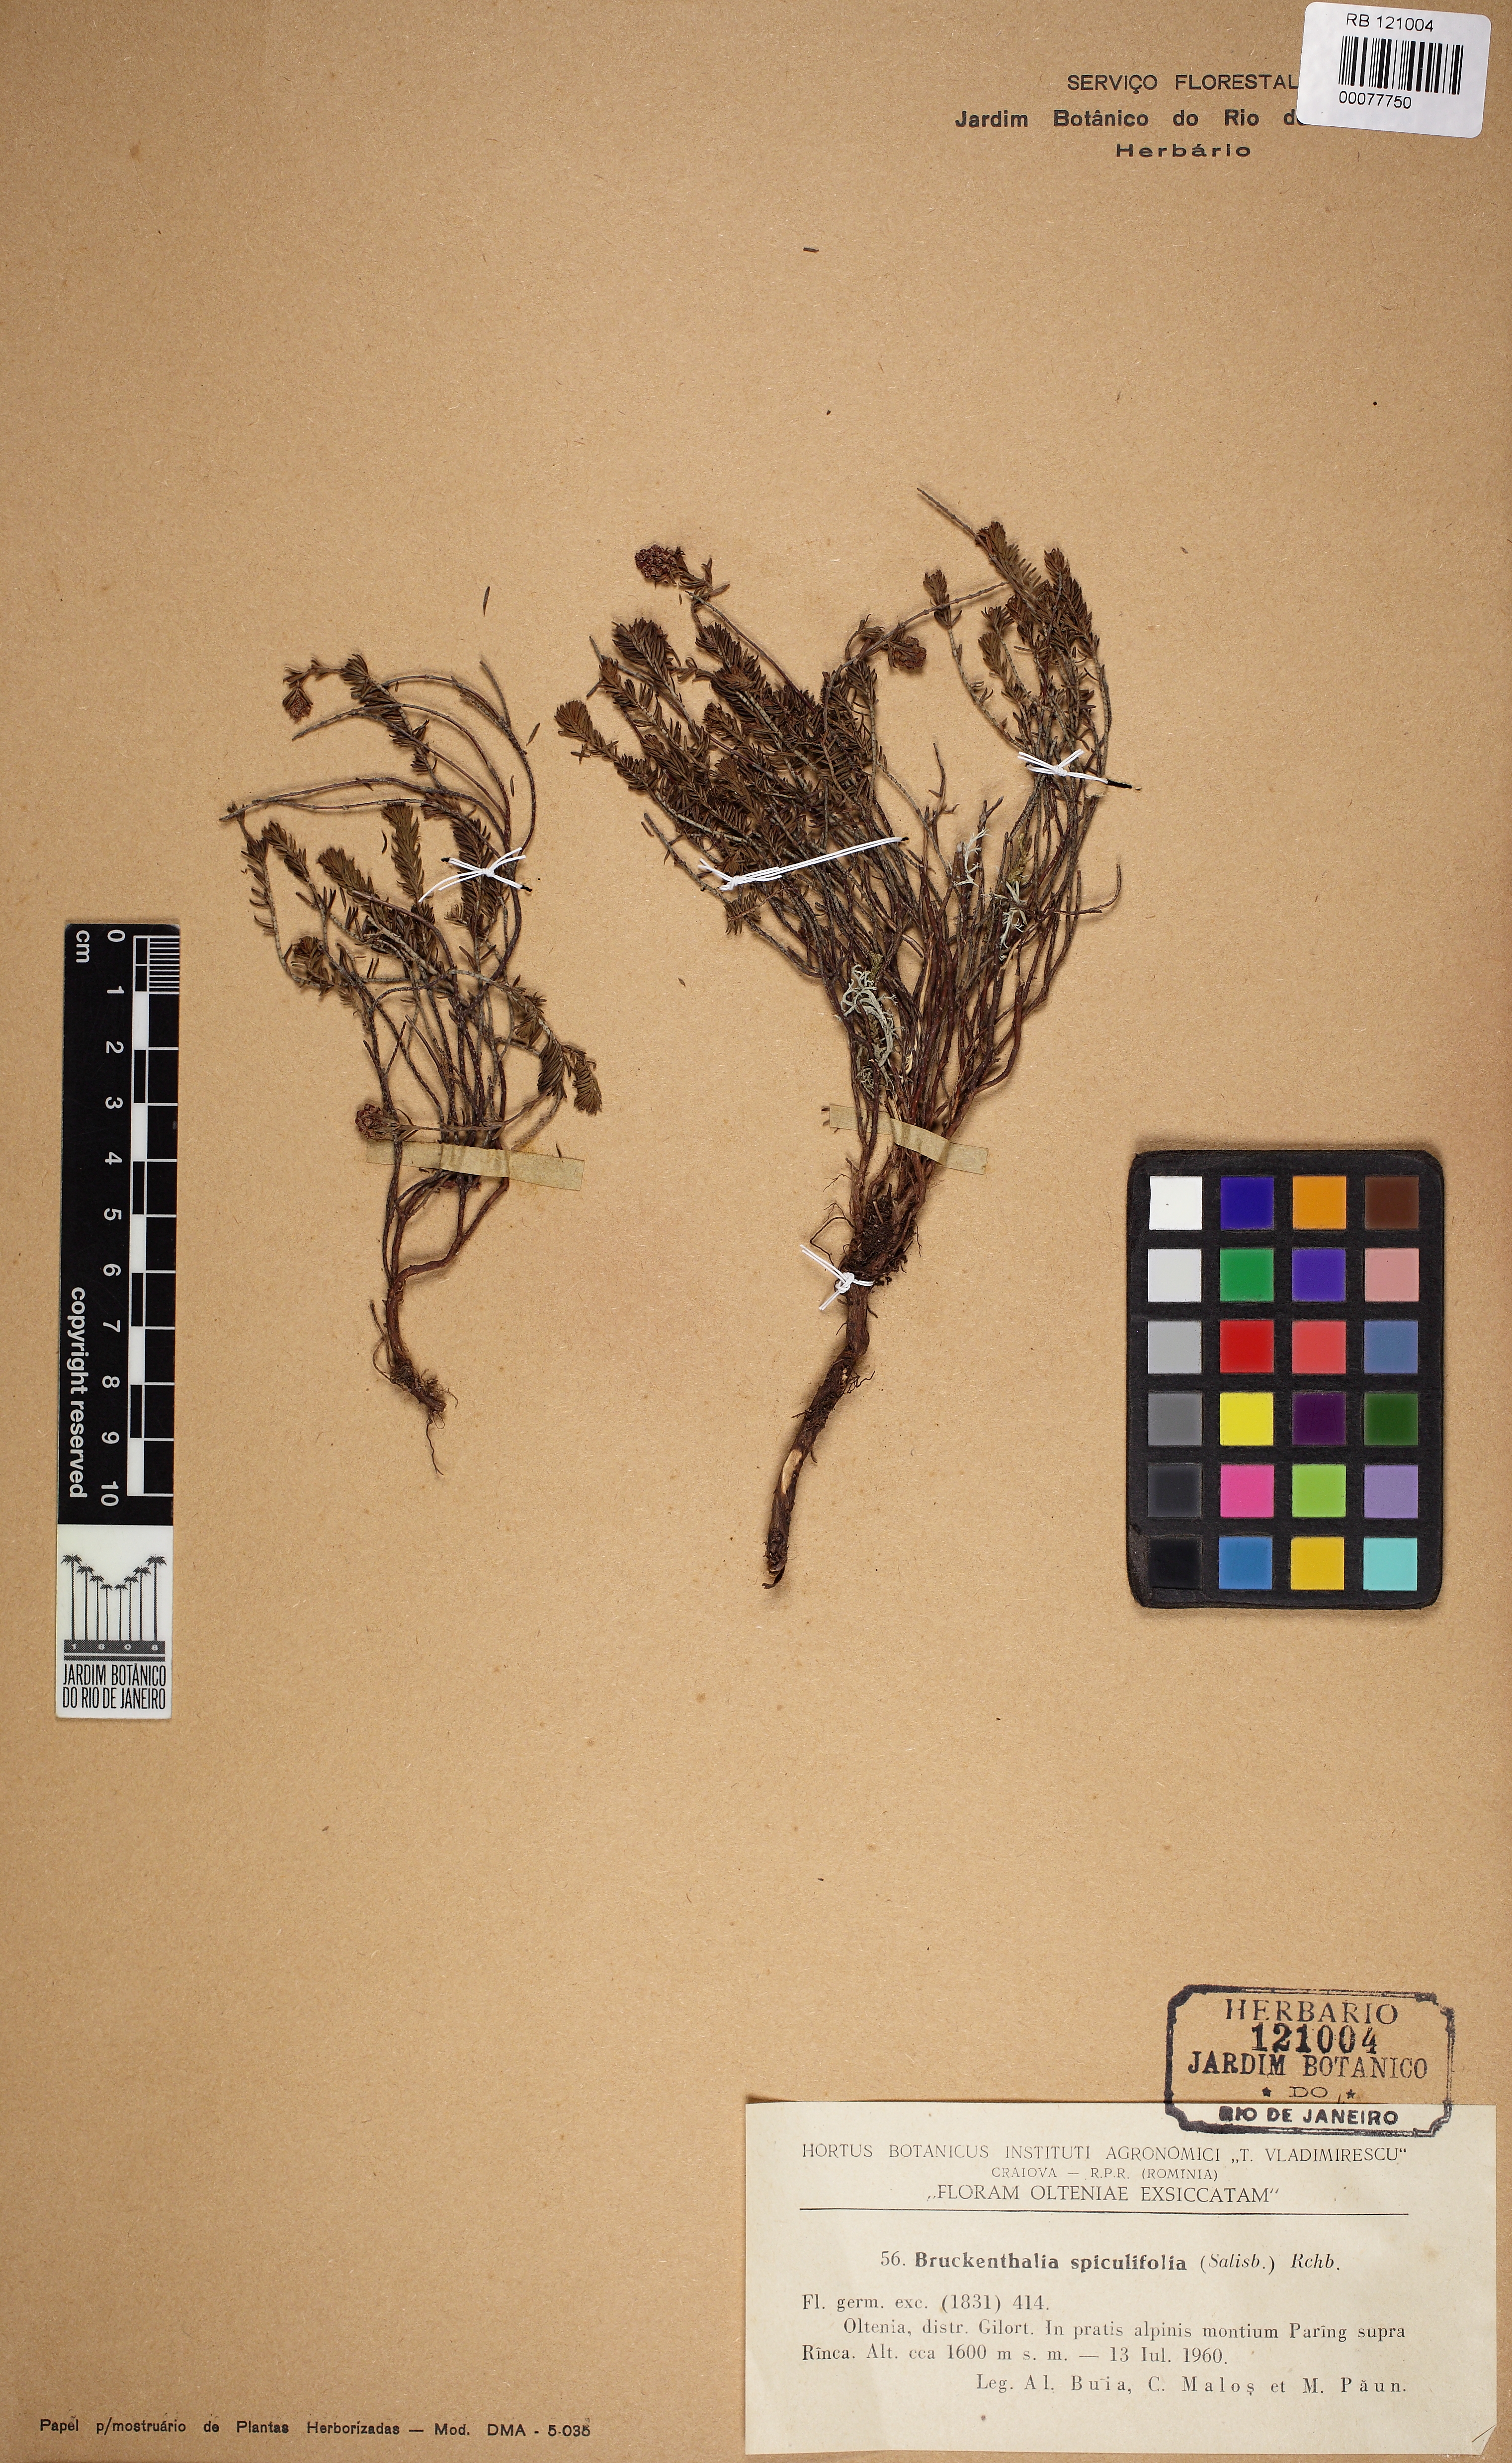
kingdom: Plantae
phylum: Tracheophyta
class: Magnoliopsida
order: Ericales
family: Ericaceae
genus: Erica
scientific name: Erica spiculifolia
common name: Spike heath
